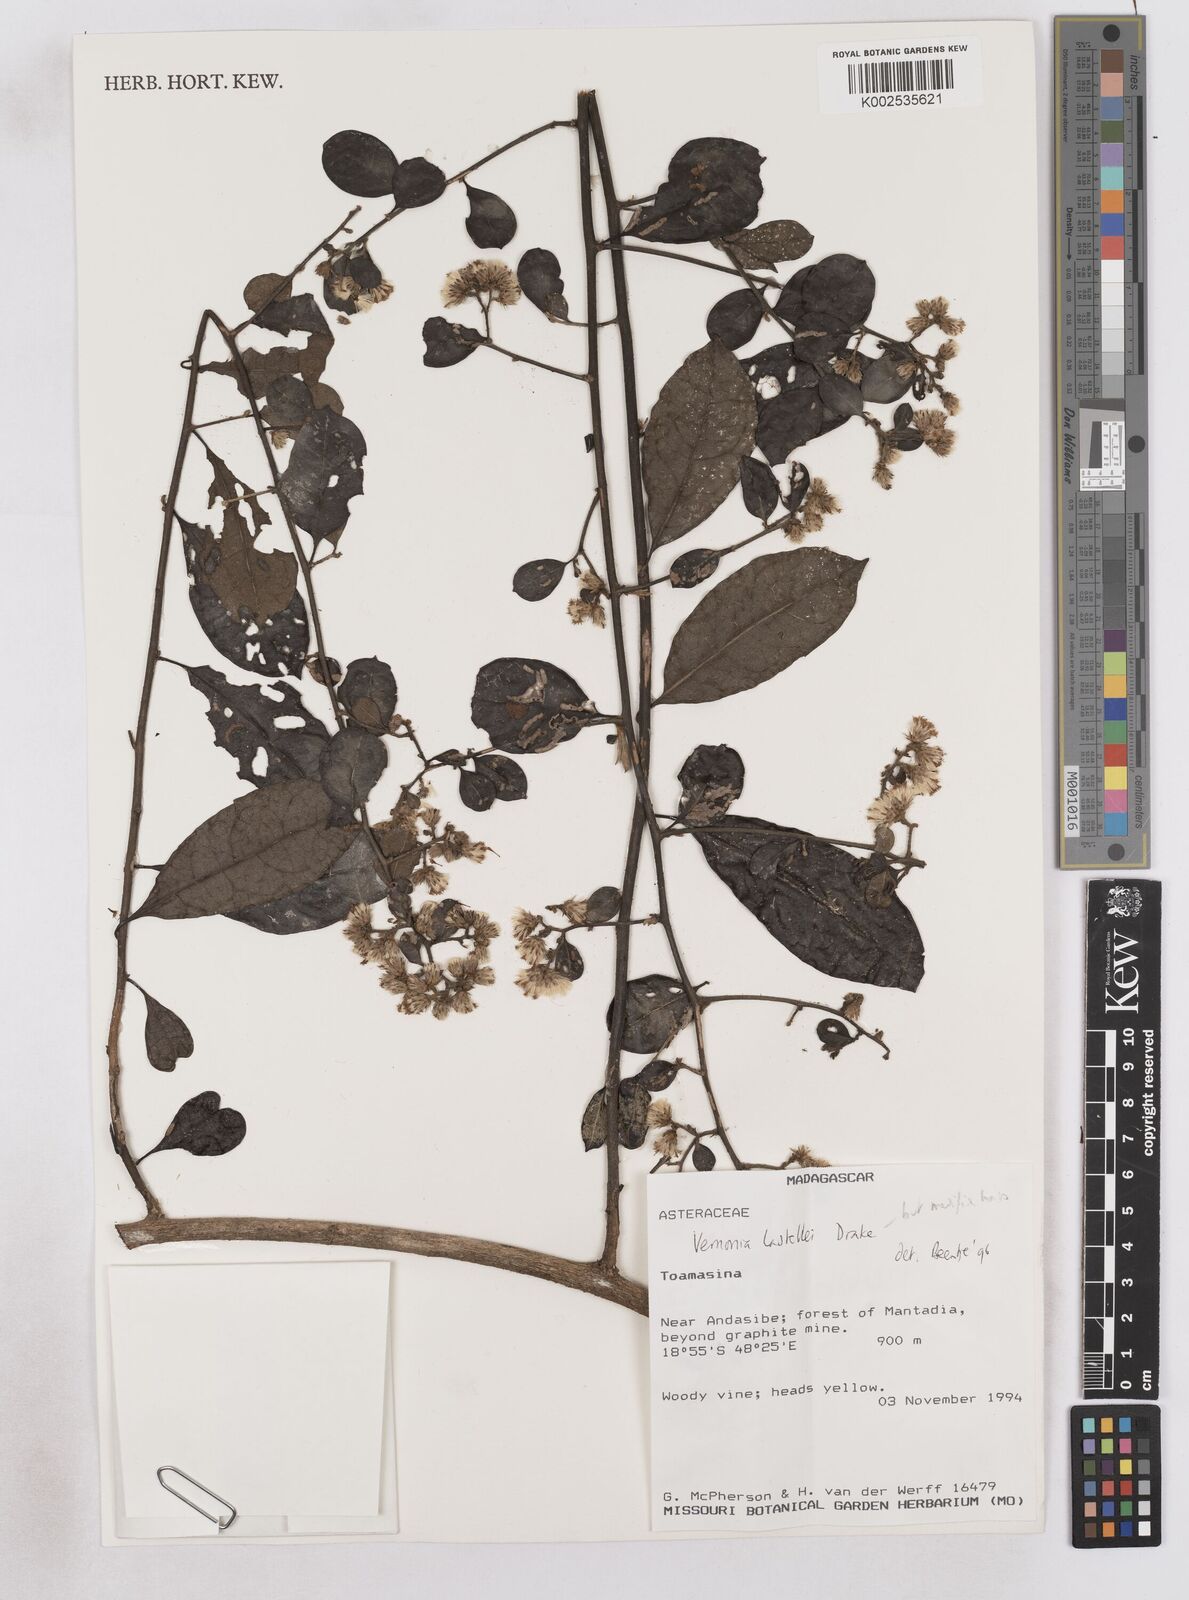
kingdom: Plantae
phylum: Tracheophyta
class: Magnoliopsida
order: Asterales
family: Asteraceae
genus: Distephanus
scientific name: Distephanus lastellei
